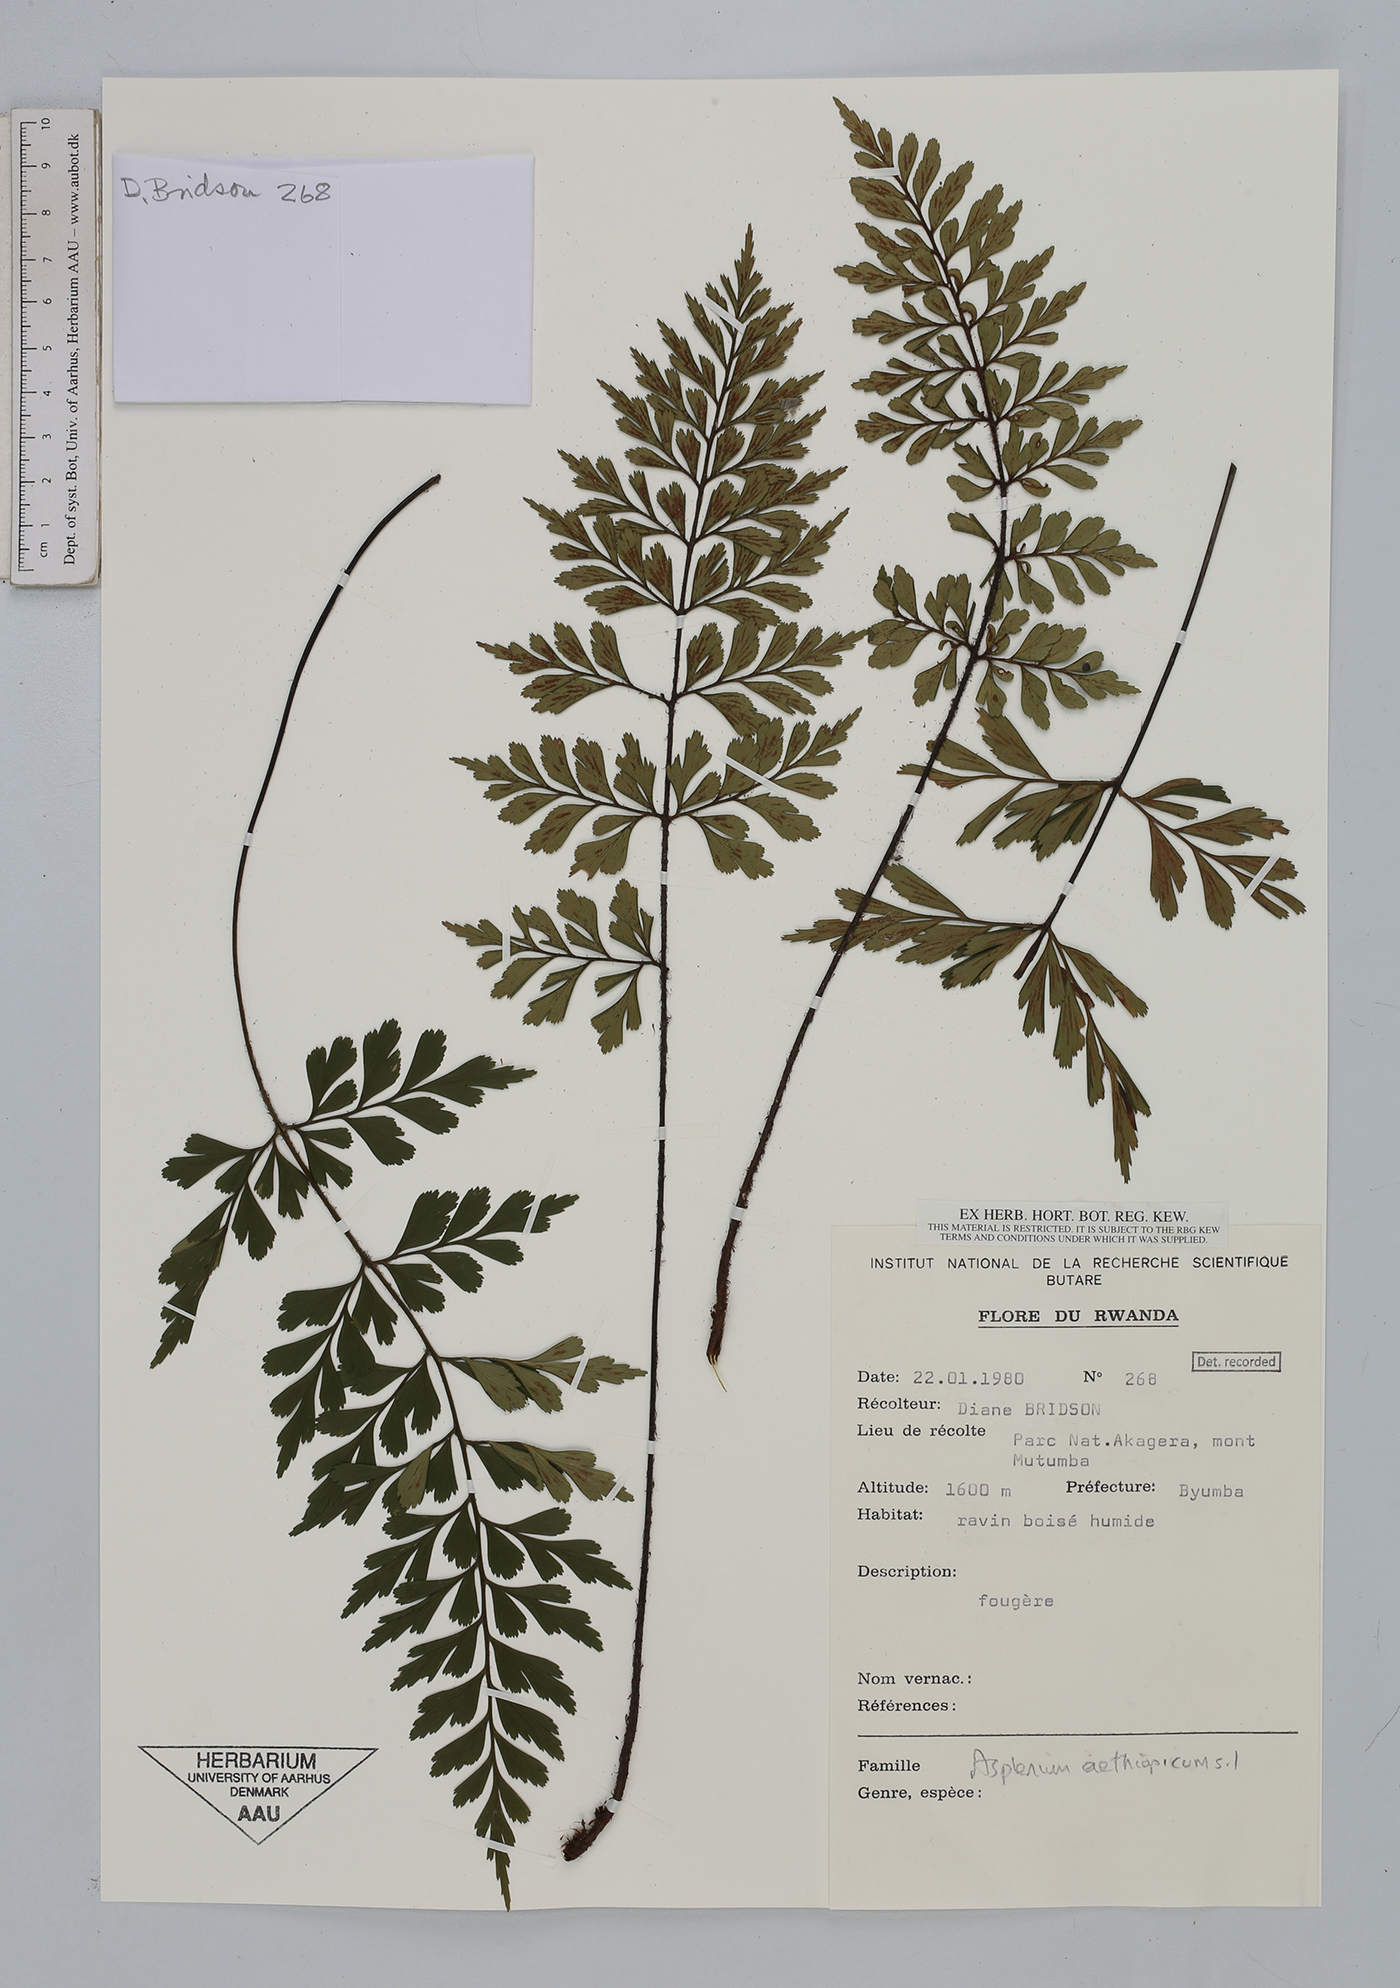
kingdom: Plantae
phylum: Tracheophyta
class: Polypodiopsida
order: Polypodiales
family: Aspleniaceae
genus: Asplenium
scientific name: Asplenium aethiopicum
